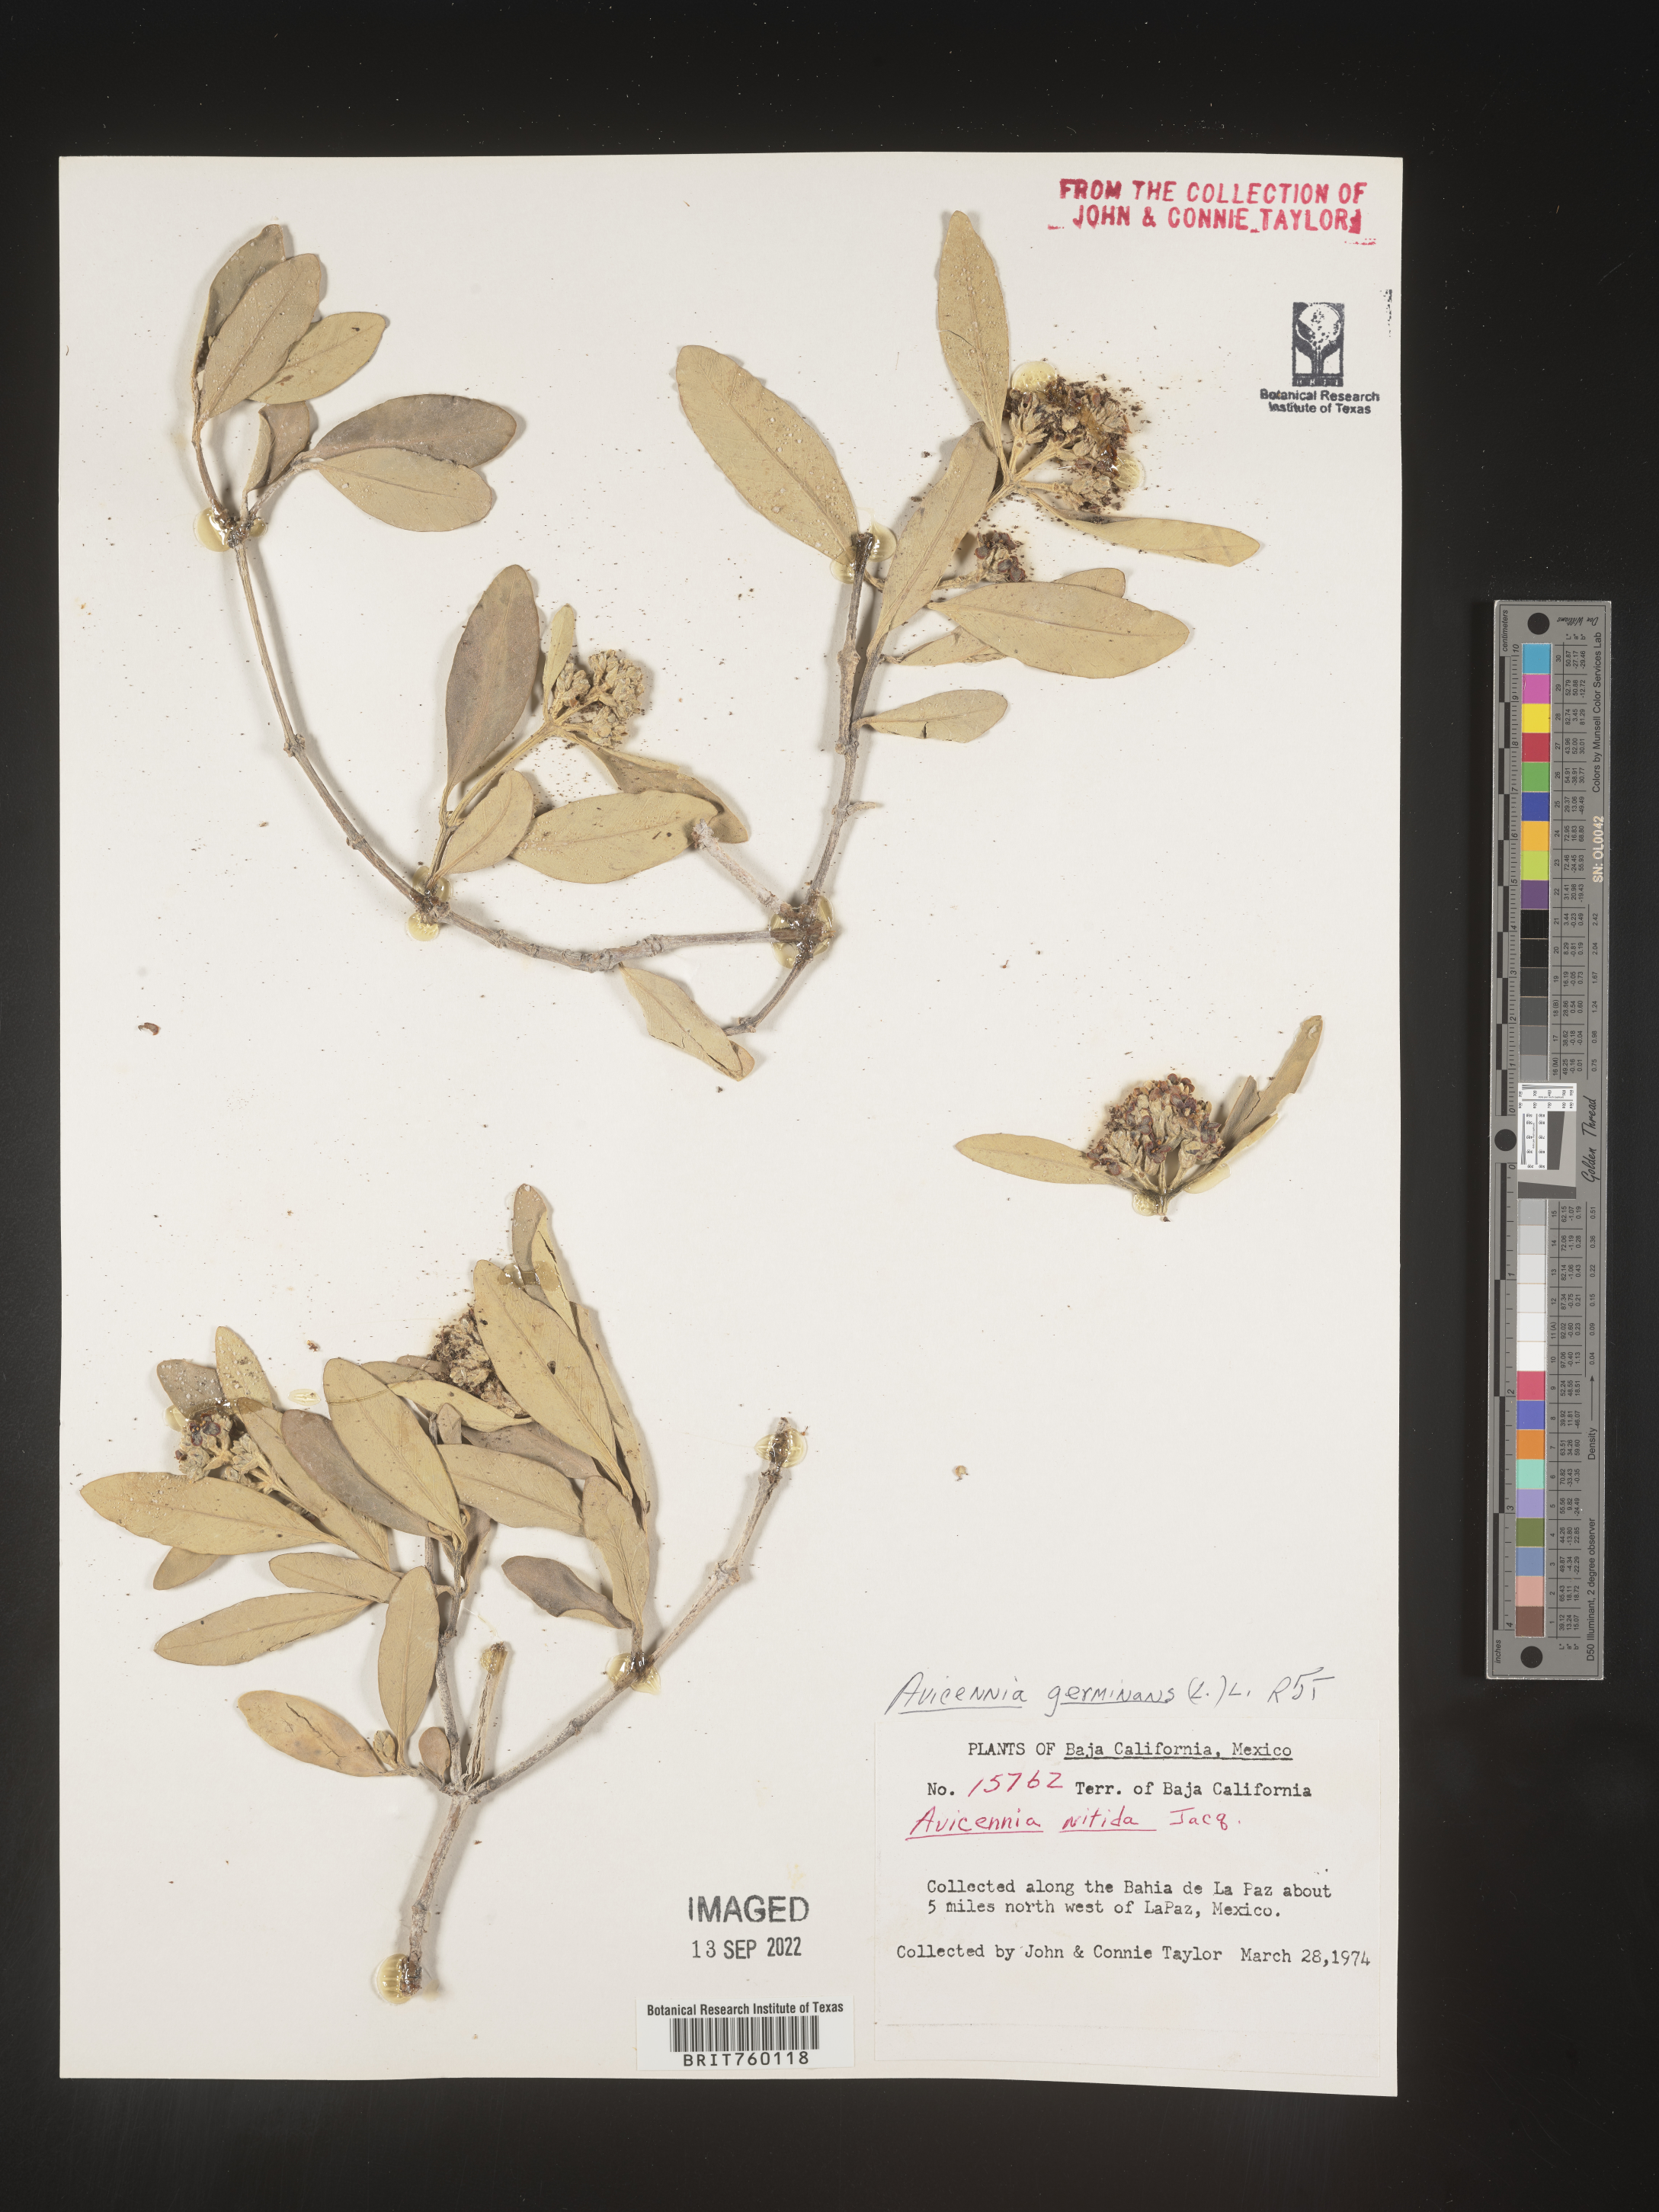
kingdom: Plantae
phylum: Tracheophyta
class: Magnoliopsida
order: Lamiales
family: Acanthaceae
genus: Avicennia
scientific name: Avicennia
